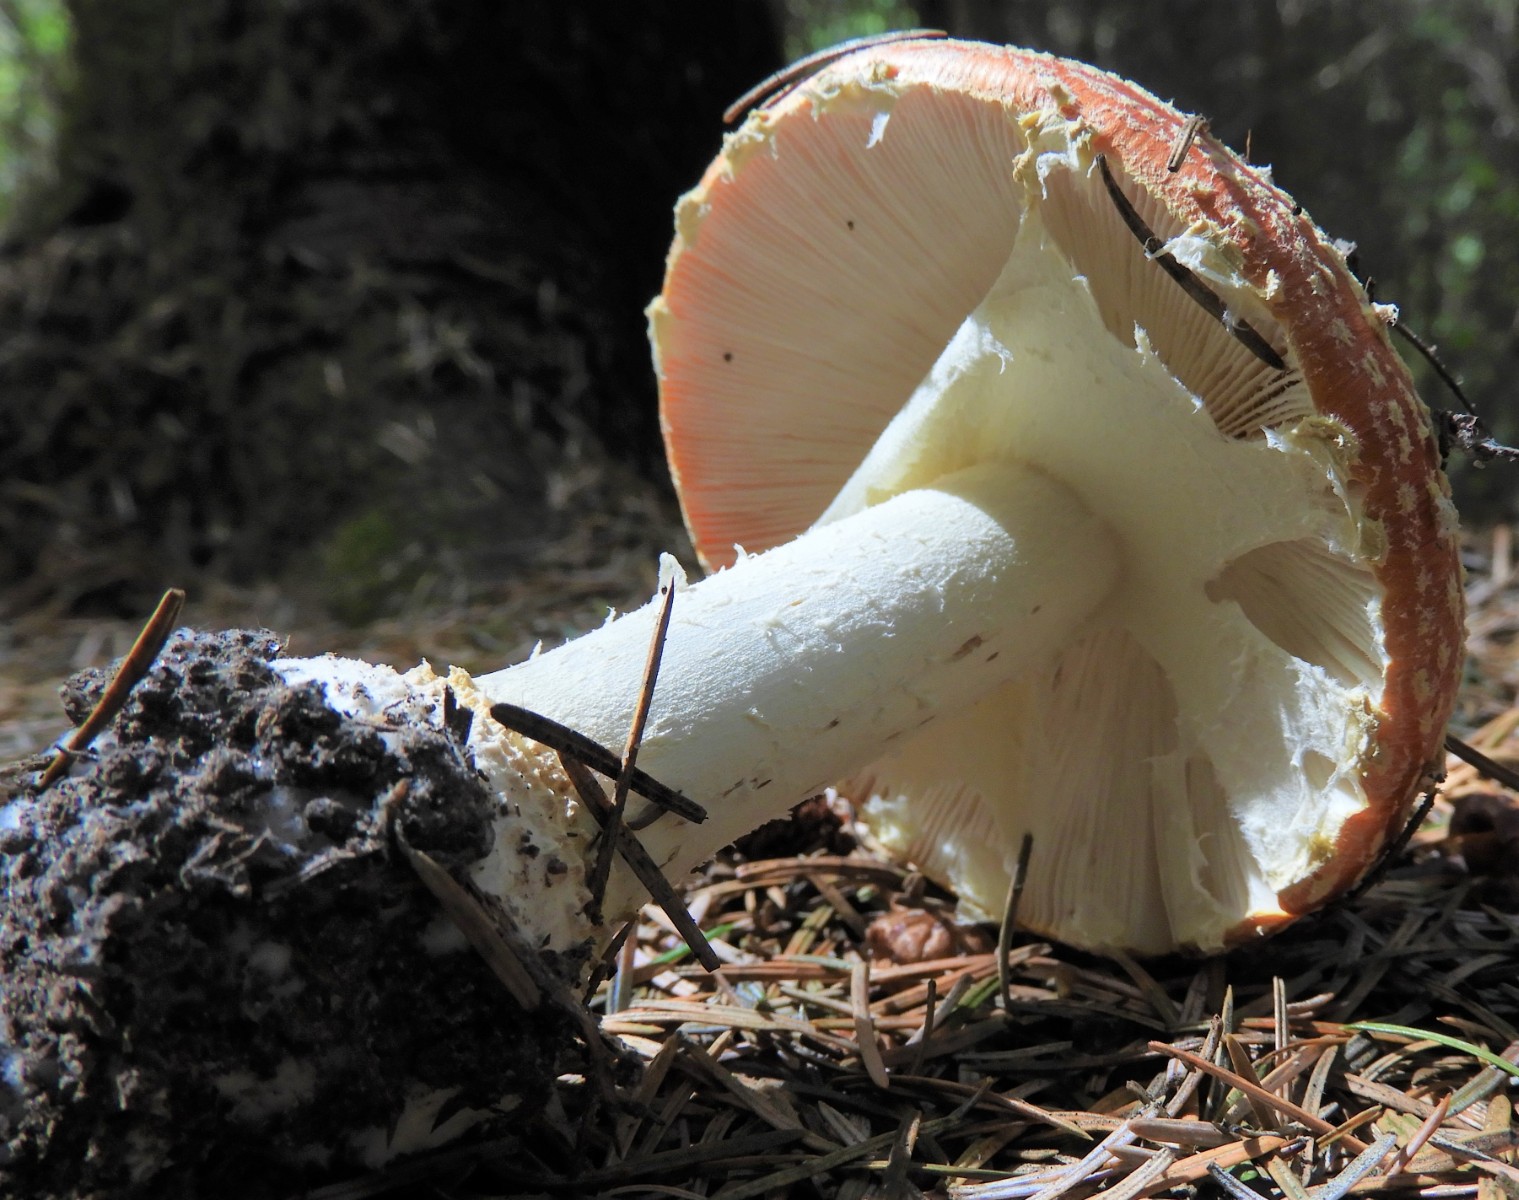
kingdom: Fungi
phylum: Basidiomycota
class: Agaricomycetes
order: Agaricales
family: Amanitaceae
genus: Amanita
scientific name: Amanita muscaria
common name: rød fluesvamp
